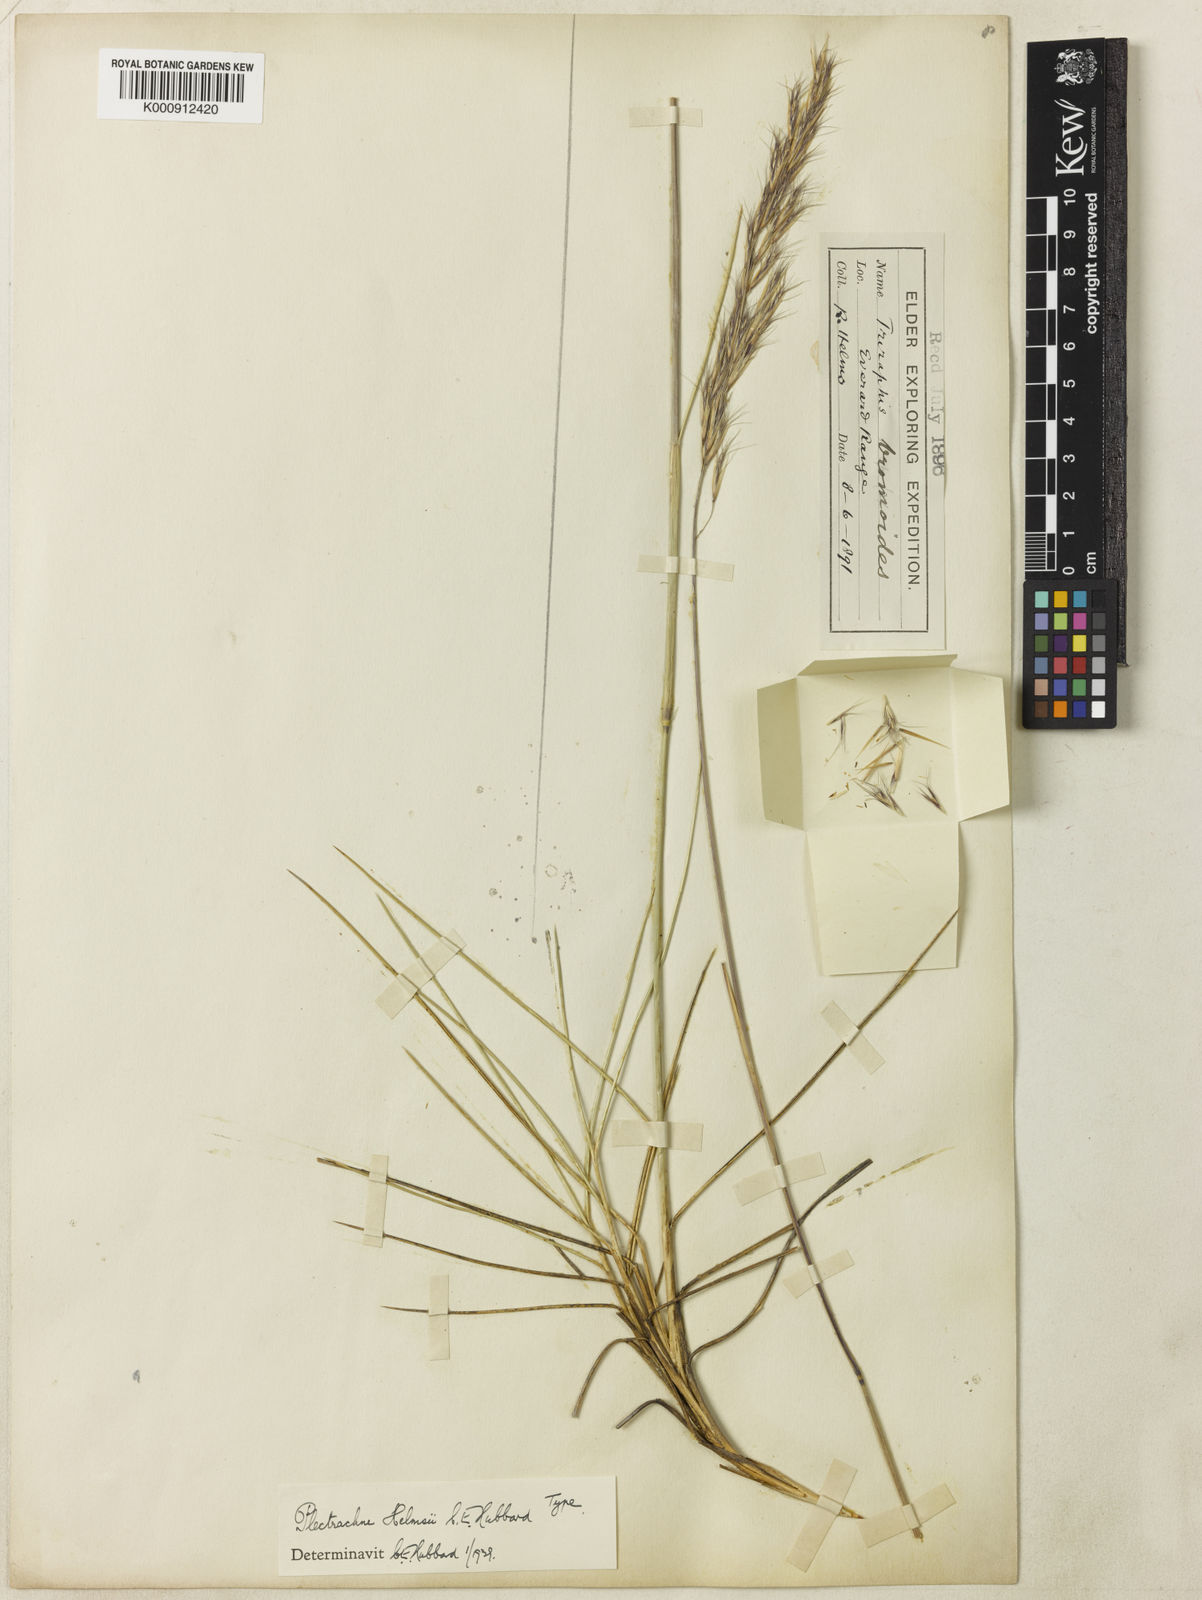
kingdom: Plantae
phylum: Tracheophyta
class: Liliopsida
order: Poales
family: Poaceae
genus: Triodia
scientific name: Triodia helmsii
